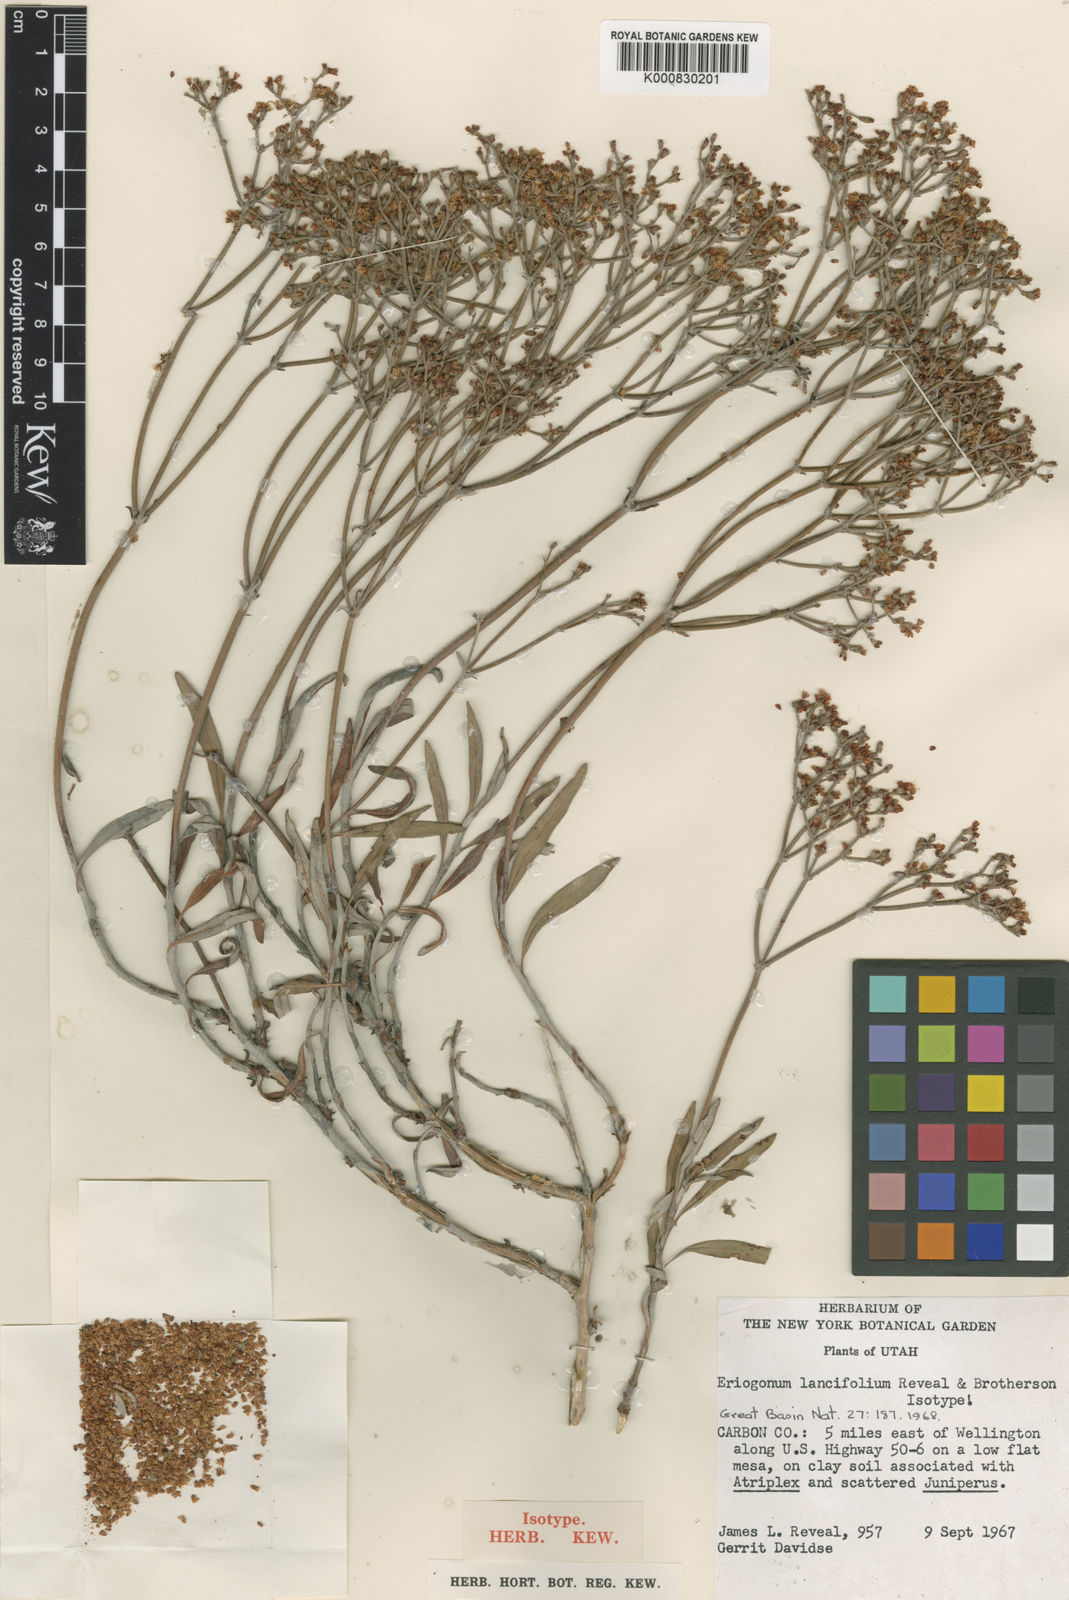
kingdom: Plantae
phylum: Tracheophyta
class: Magnoliopsida
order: Caryophyllales
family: Polygonaceae
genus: Eriogonum
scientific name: Eriogonum lancifolium
